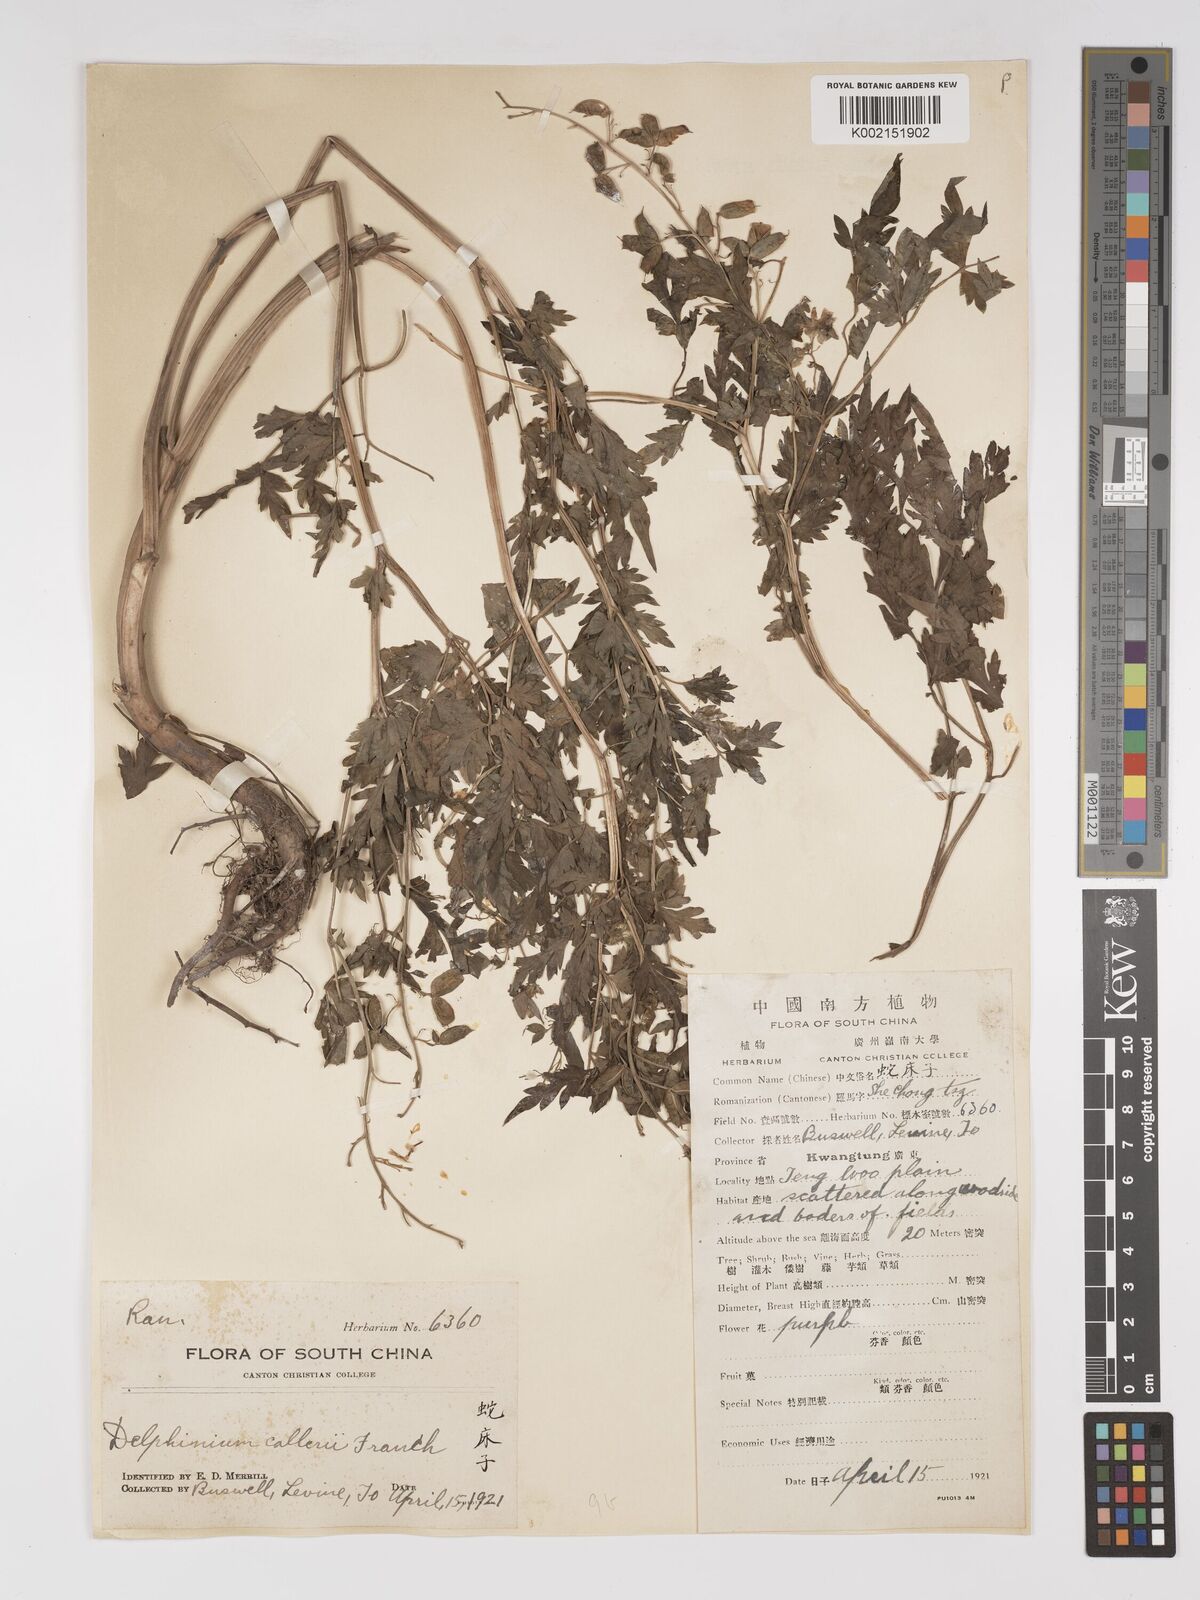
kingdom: Plantae
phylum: Tracheophyta
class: Magnoliopsida
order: Ranunculales
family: Ranunculaceae
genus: Delphinium
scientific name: Delphinium anthriscifolium
